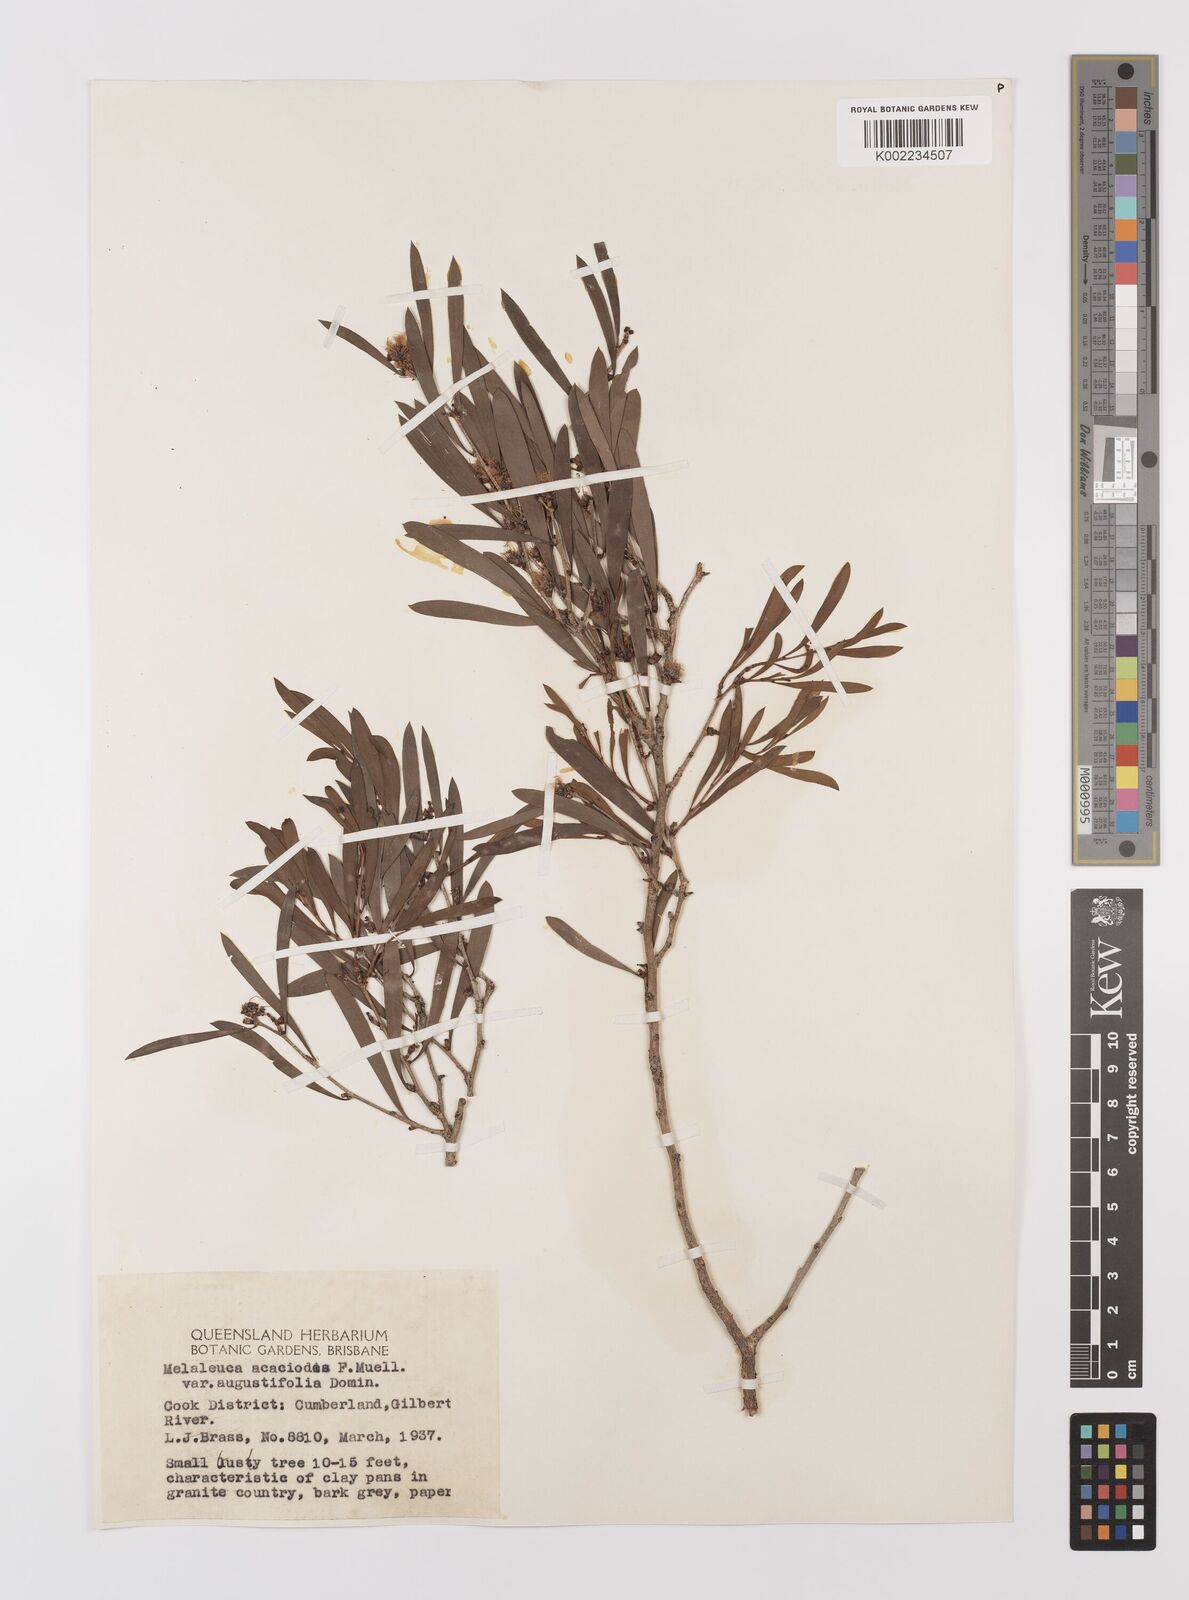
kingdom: Plantae
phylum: Tracheophyta
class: Magnoliopsida
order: Myrtales
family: Myrtaceae
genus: Melaleuca
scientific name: Melaleuca citrolens
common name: Lemon-scented paperbark
